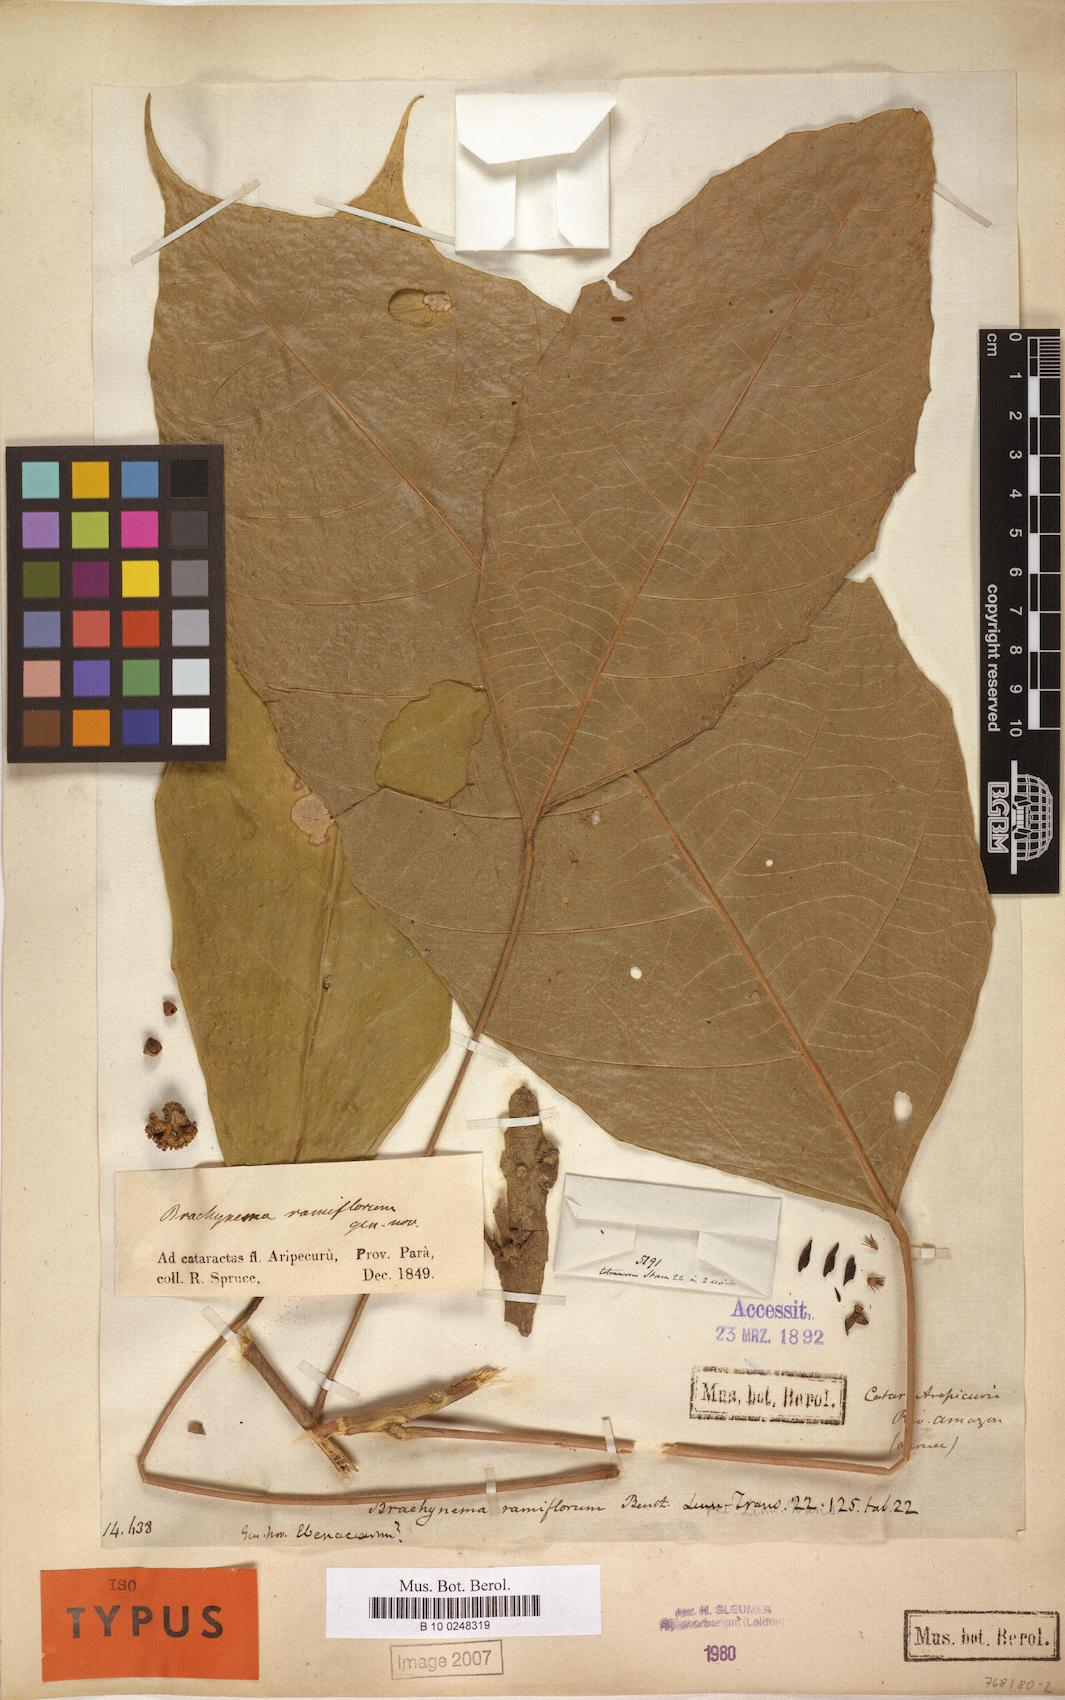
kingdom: Plantae
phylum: Tracheophyta
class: Magnoliopsida
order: Santalales
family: Erythropalaceae
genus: Brachynema
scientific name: Brachynema ramiflorum
